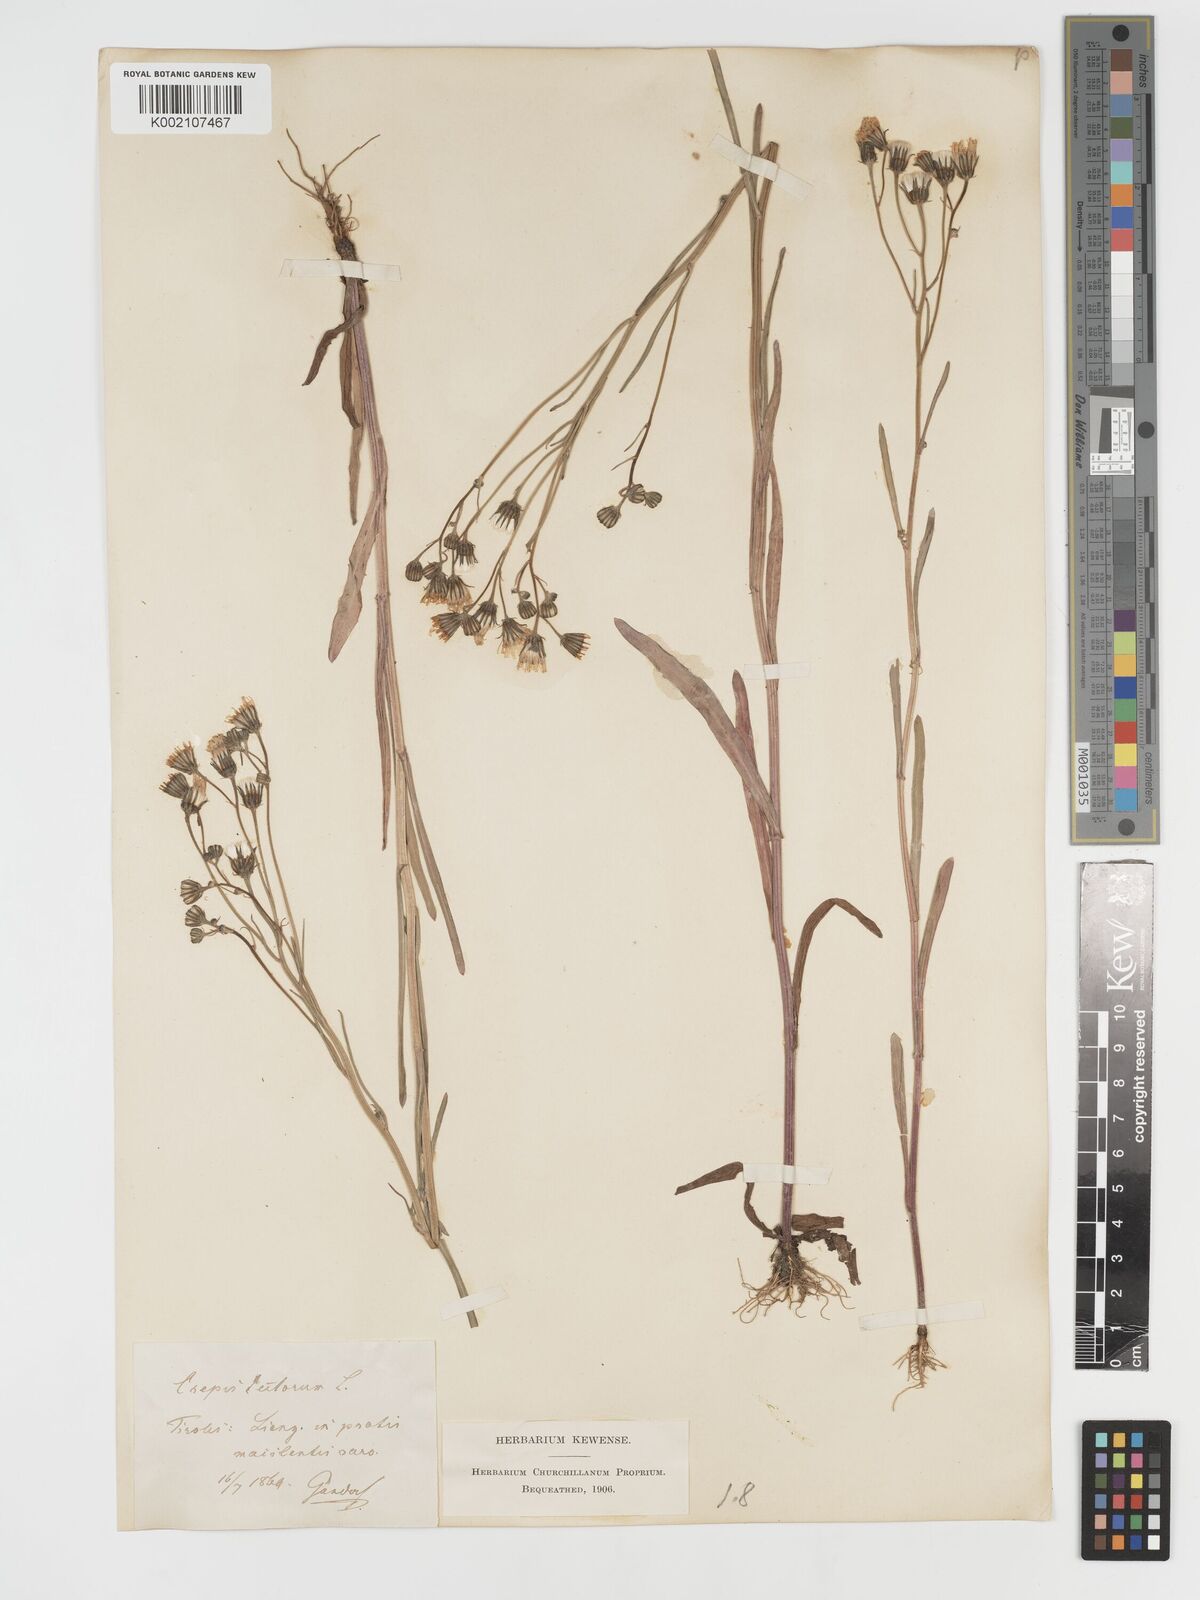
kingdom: Plantae
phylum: Tracheophyta
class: Magnoliopsida
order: Asterales
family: Asteraceae
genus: Crepis
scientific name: Crepis tectorum
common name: Narrow-leaved hawk's-beard
